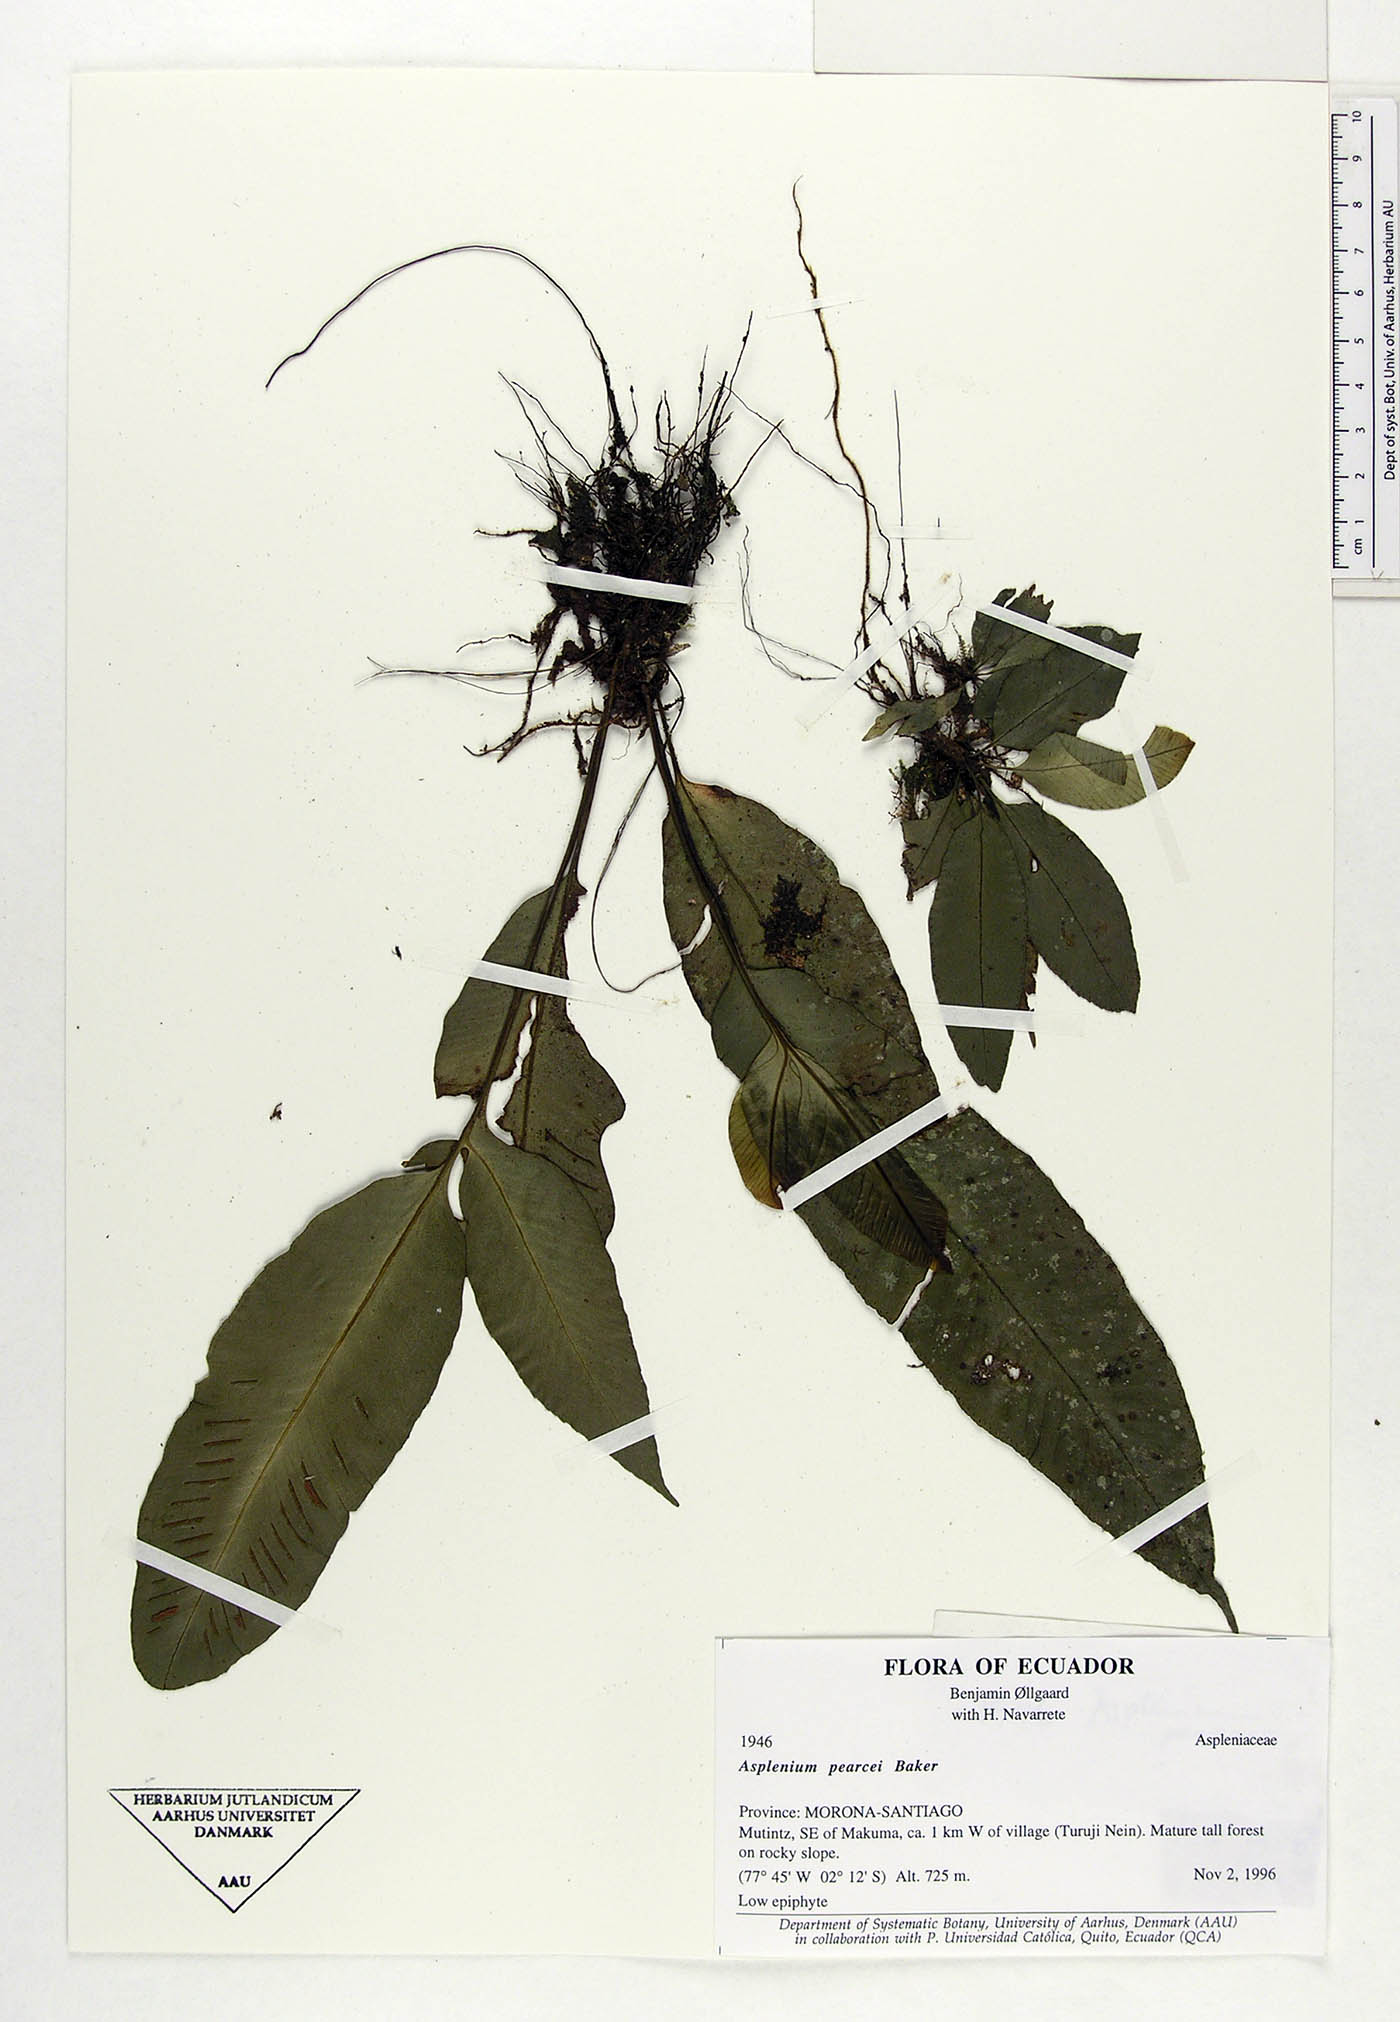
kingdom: Plantae
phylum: Tracheophyta
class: Polypodiopsida
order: Polypodiales
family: Aspleniaceae
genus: Asplenium
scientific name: Asplenium pearcei
